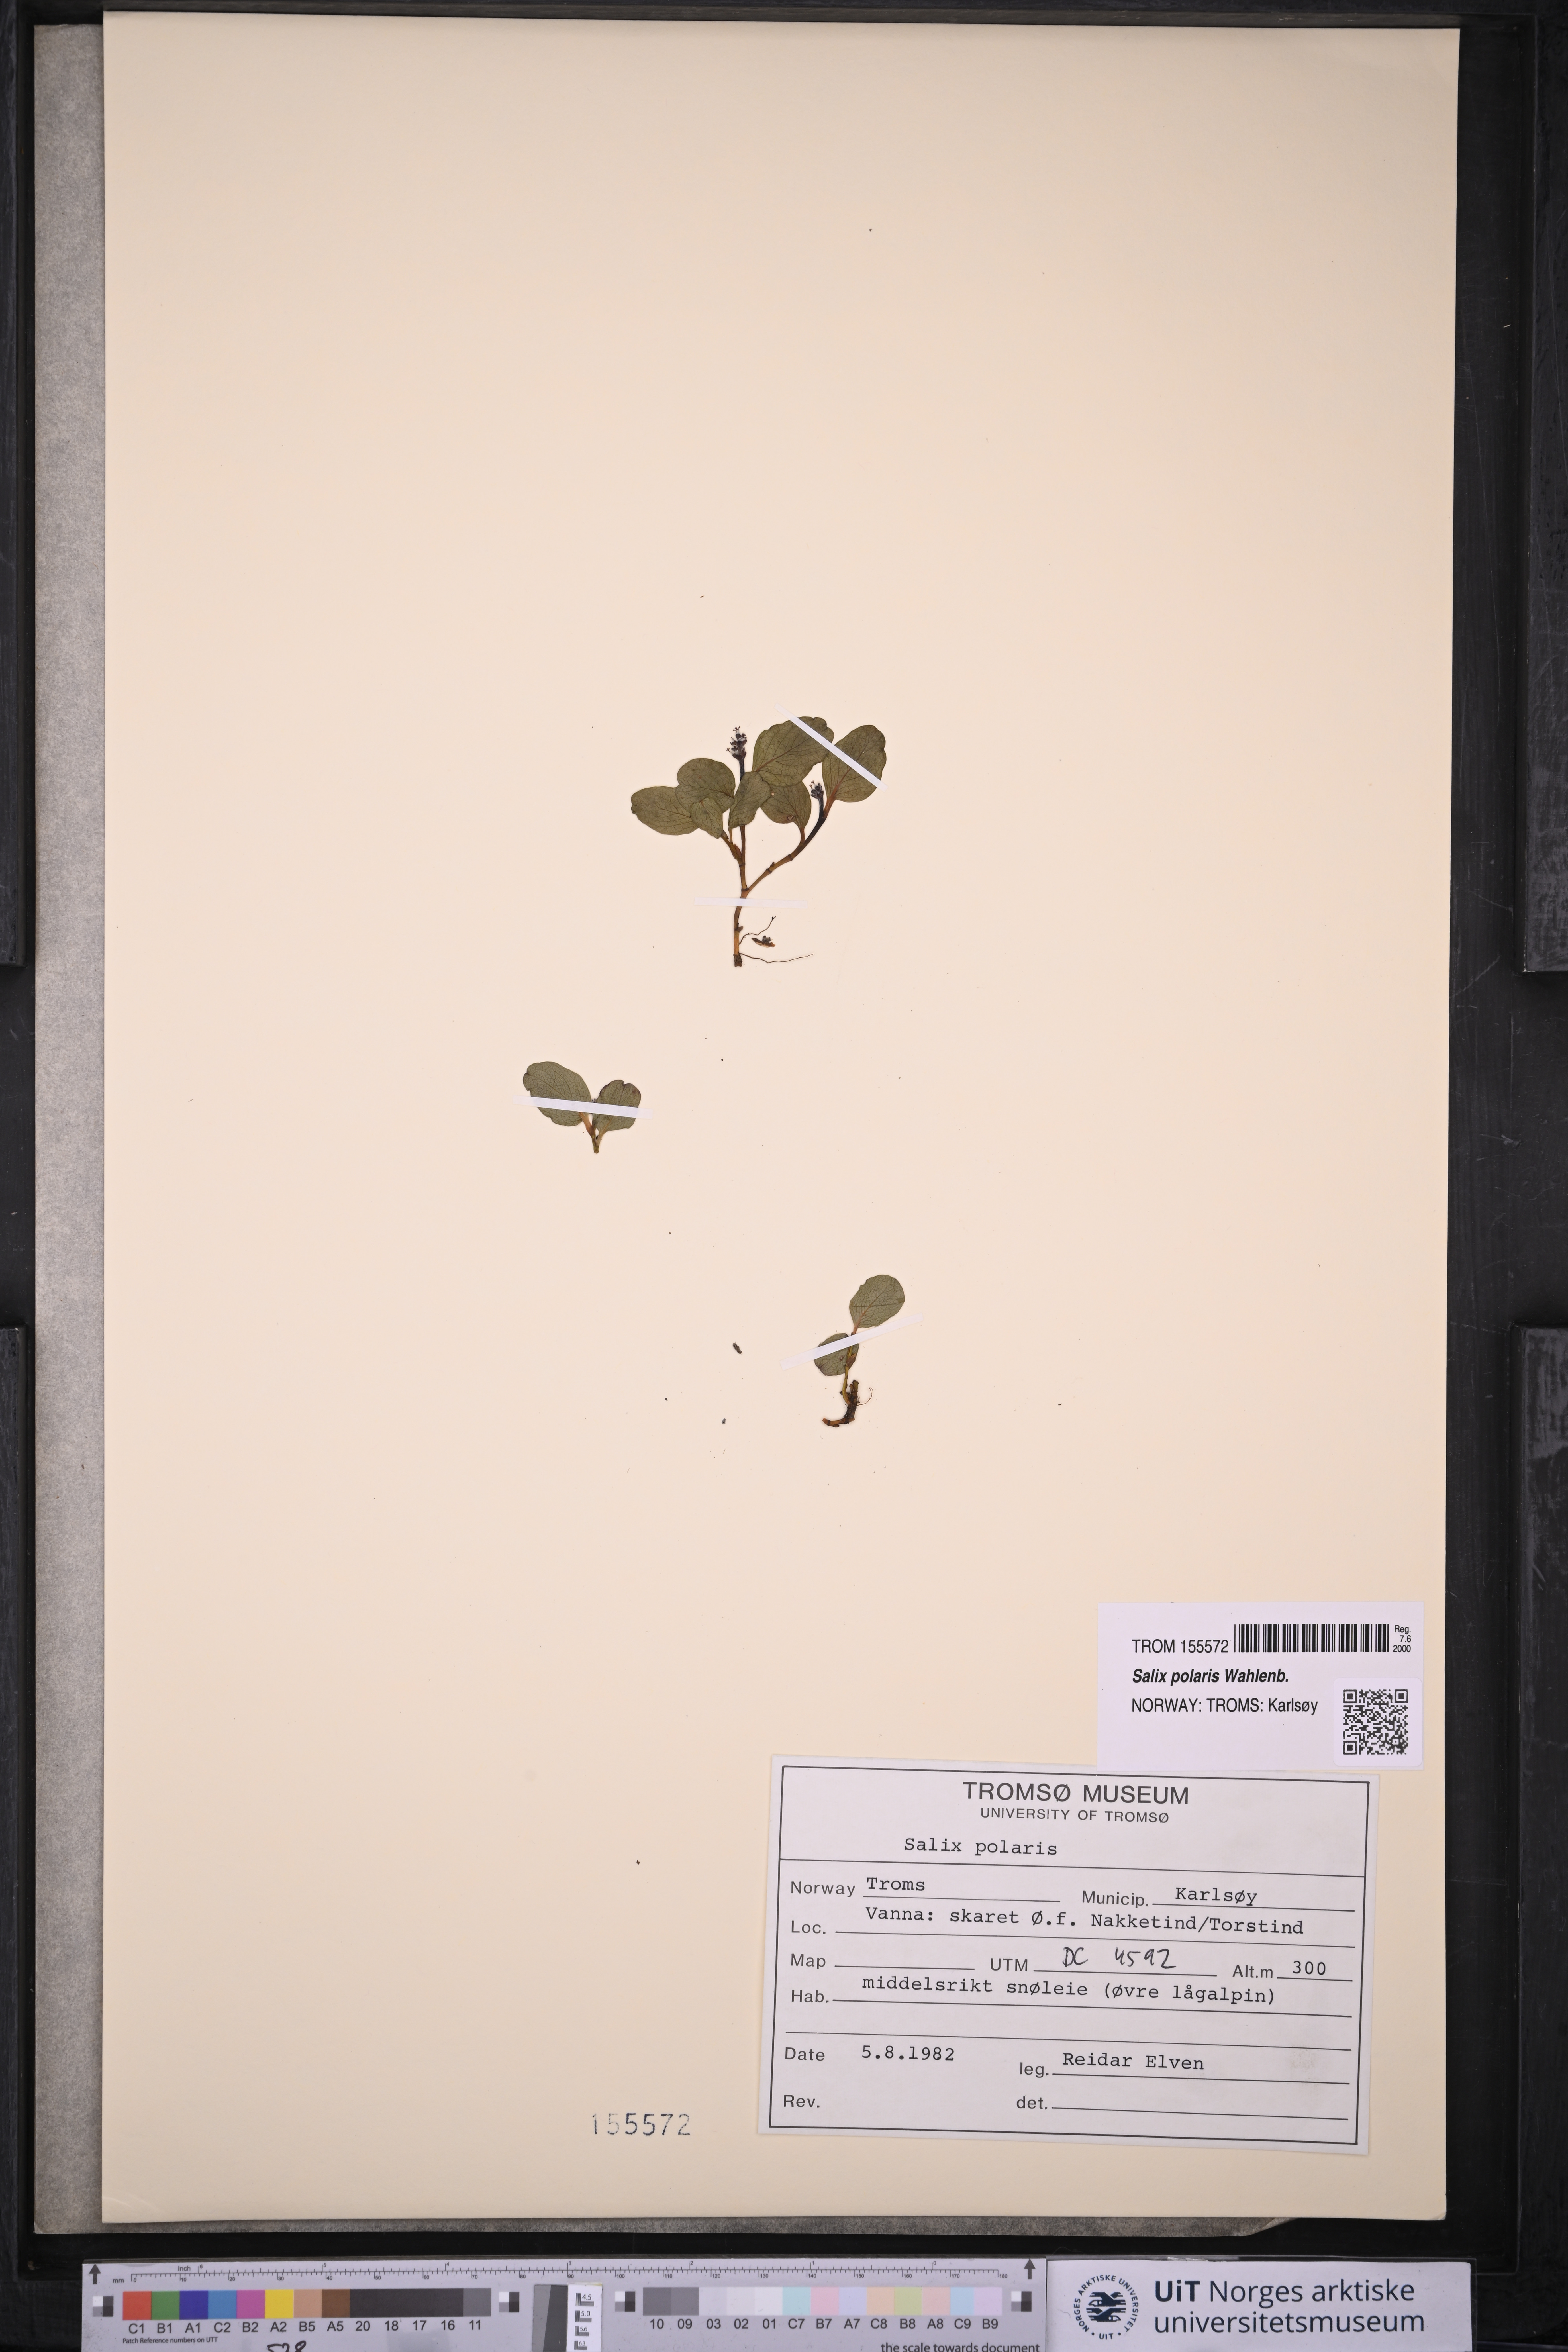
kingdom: Plantae
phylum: Tracheophyta
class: Magnoliopsida
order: Malpighiales
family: Salicaceae
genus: Salix
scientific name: Salix polaris
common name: Polar willow
